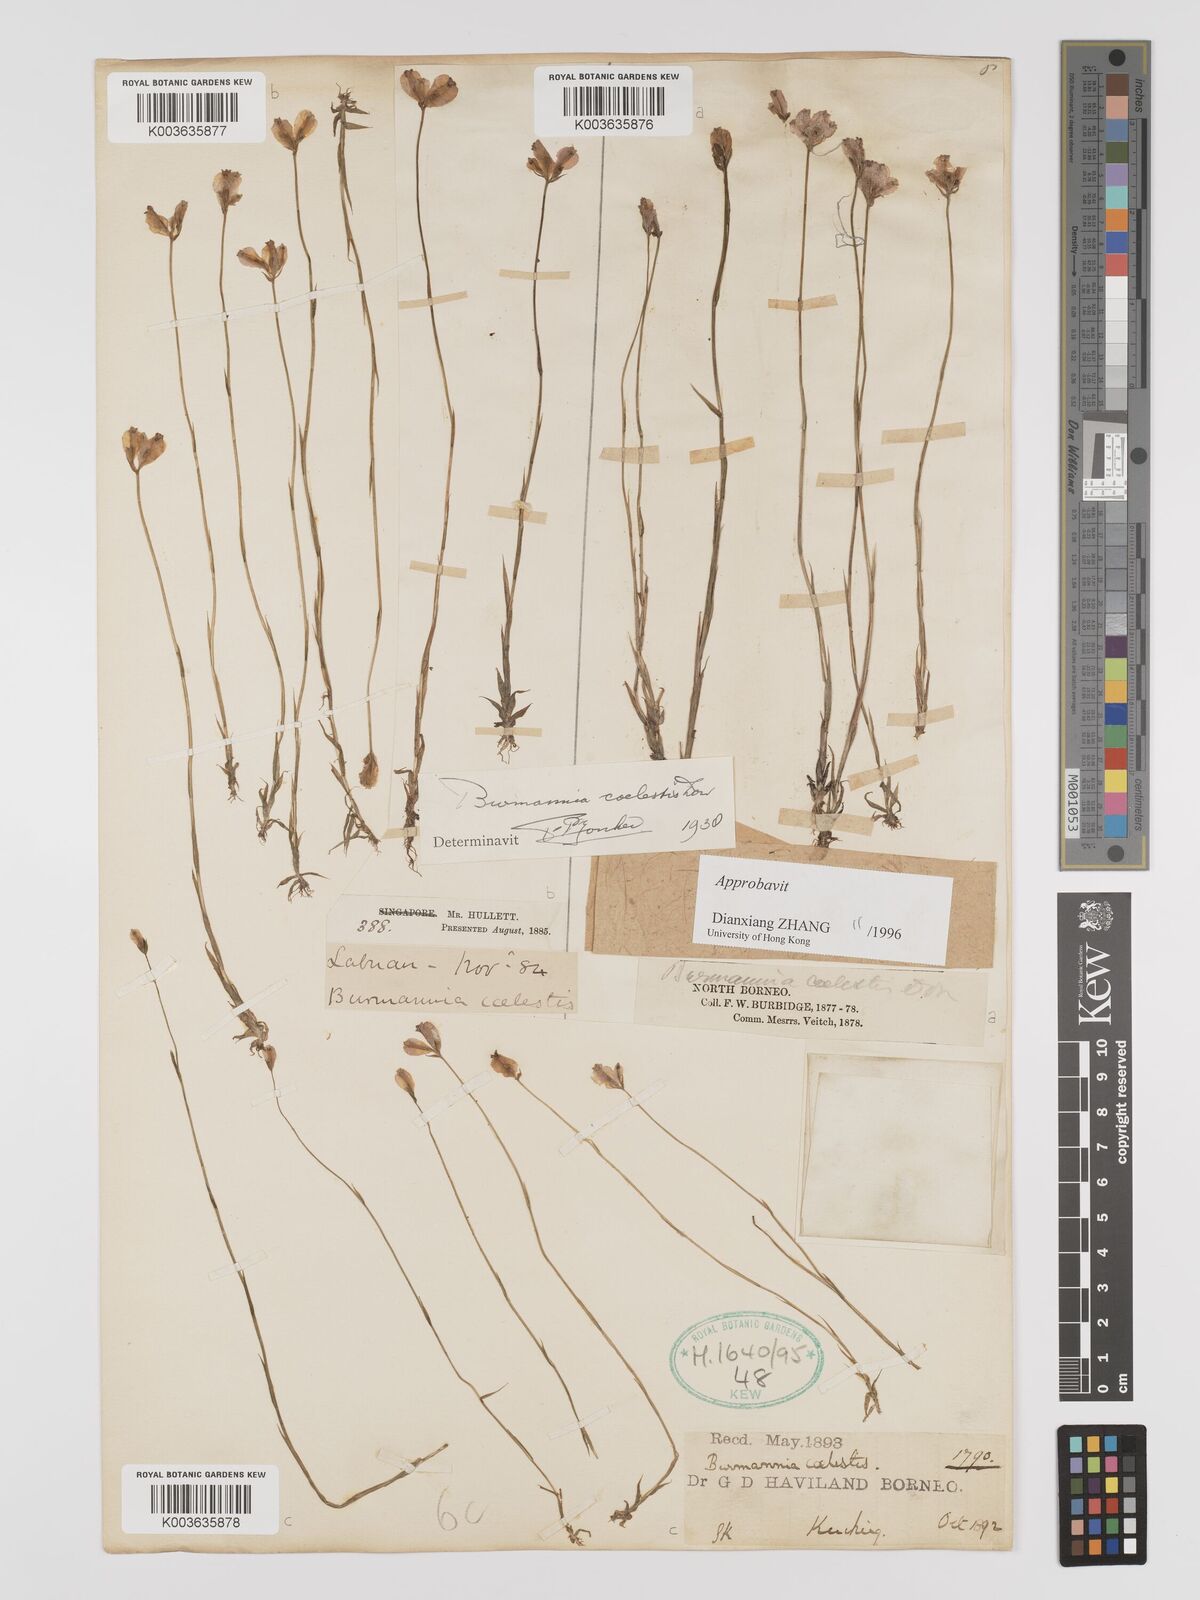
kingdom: Plantae
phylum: Tracheophyta
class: Liliopsida
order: Dioscoreales
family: Burmanniaceae
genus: Burmannia
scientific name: Burmannia coelestis
